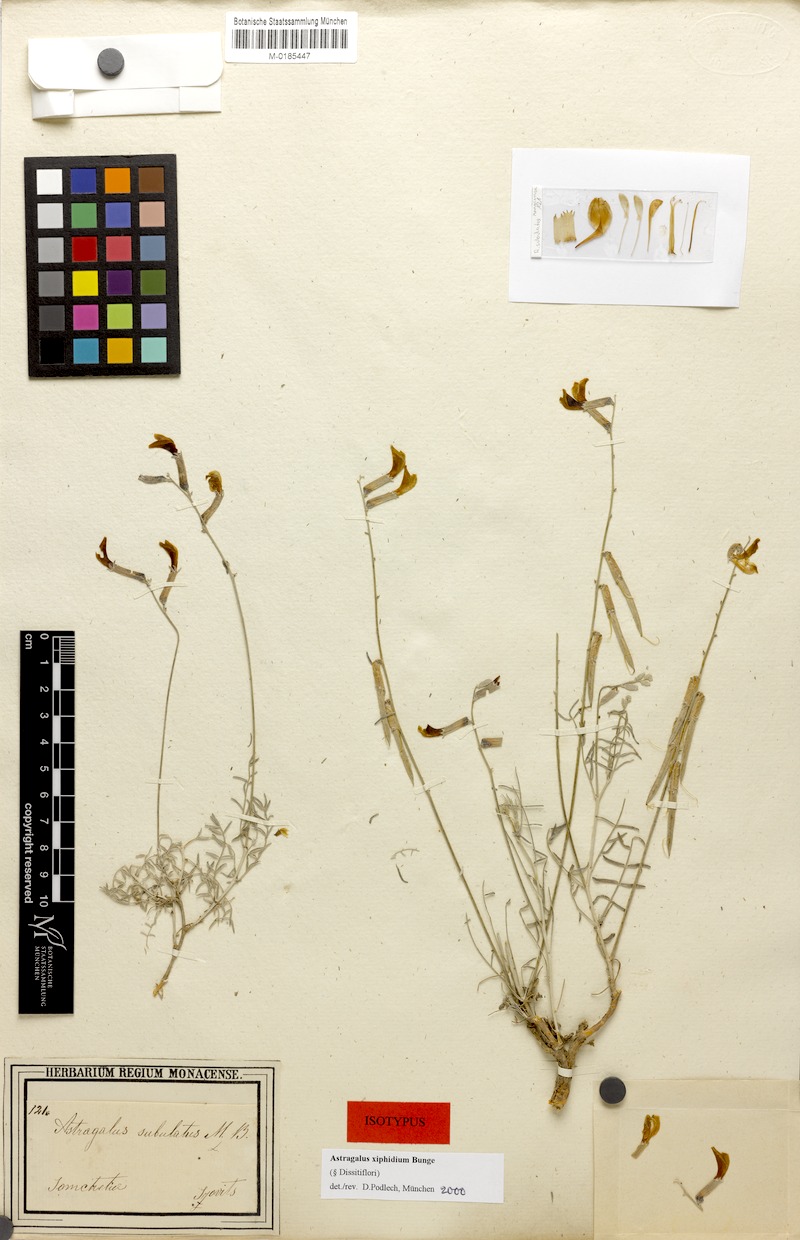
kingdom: Plantae
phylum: Tracheophyta
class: Magnoliopsida
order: Fabales
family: Fabaceae
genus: Astragalus
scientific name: Astragalus xiphidium
